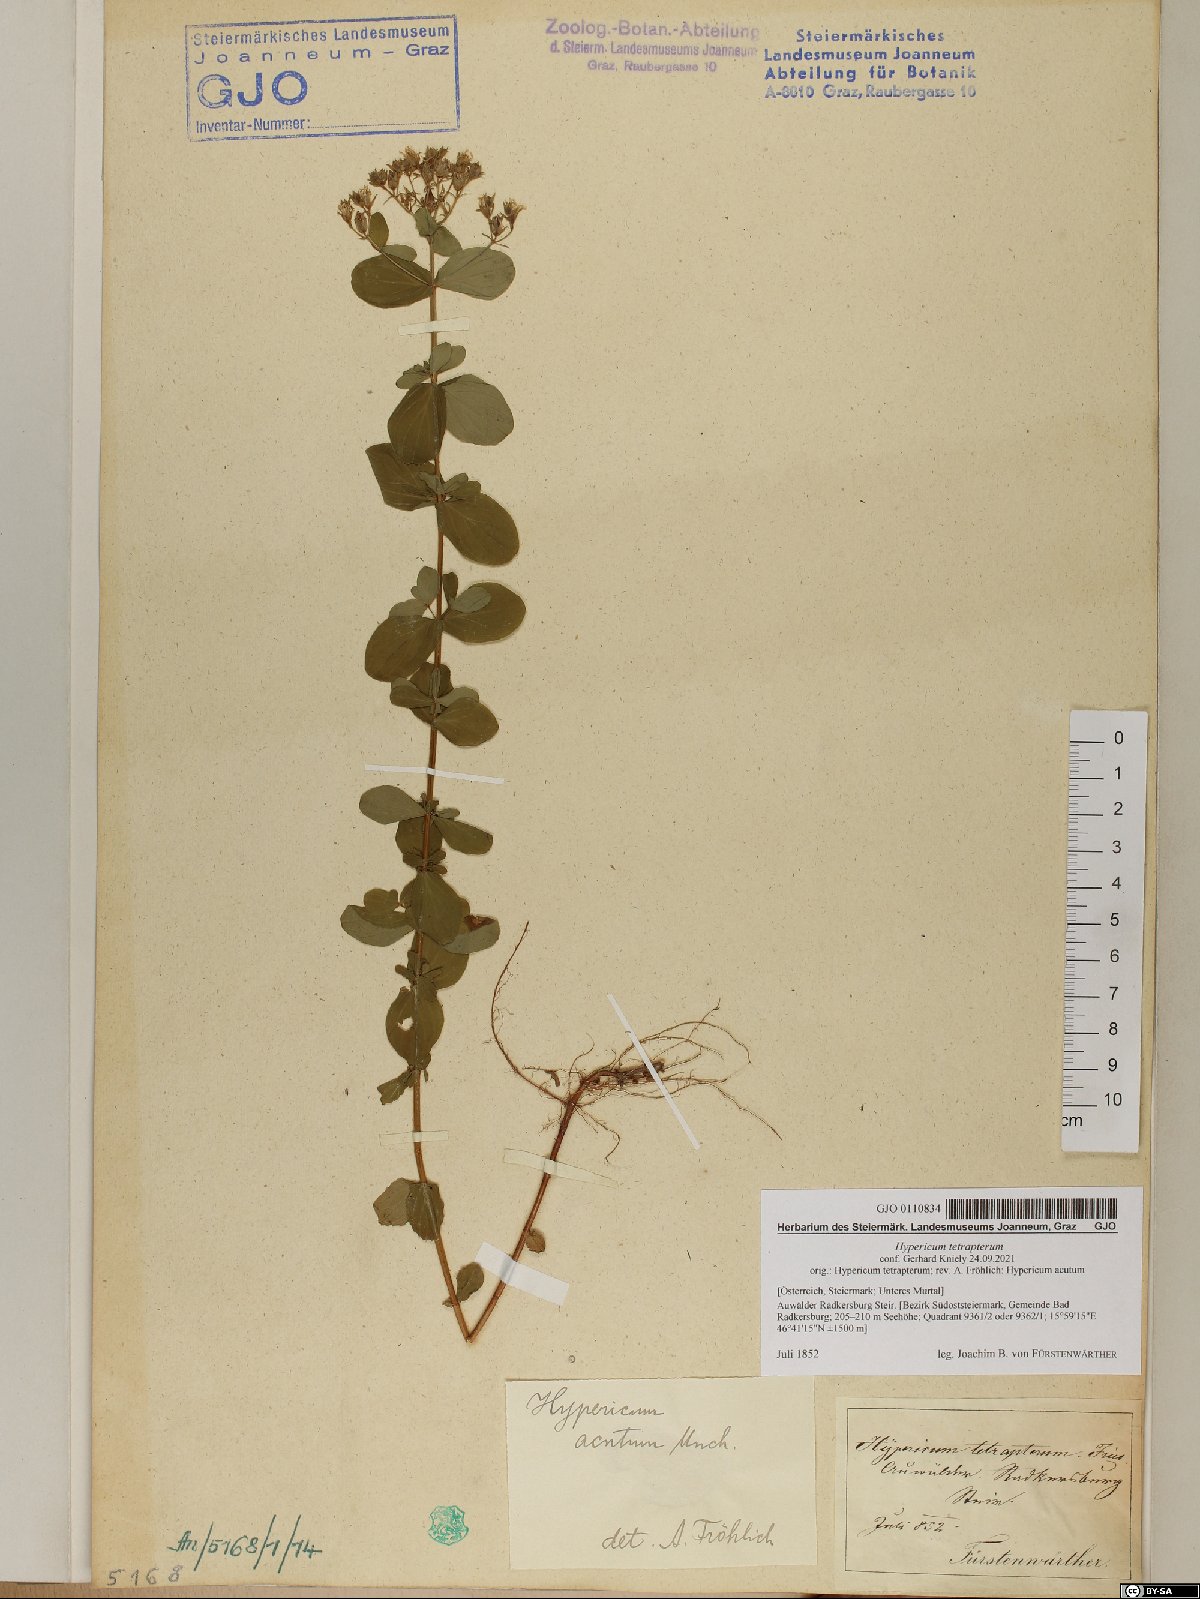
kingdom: Plantae
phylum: Tracheophyta
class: Magnoliopsida
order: Malpighiales
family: Hypericaceae
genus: Hypericum
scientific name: Hypericum tetrapterum
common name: Square-stalked st. john's-wort
